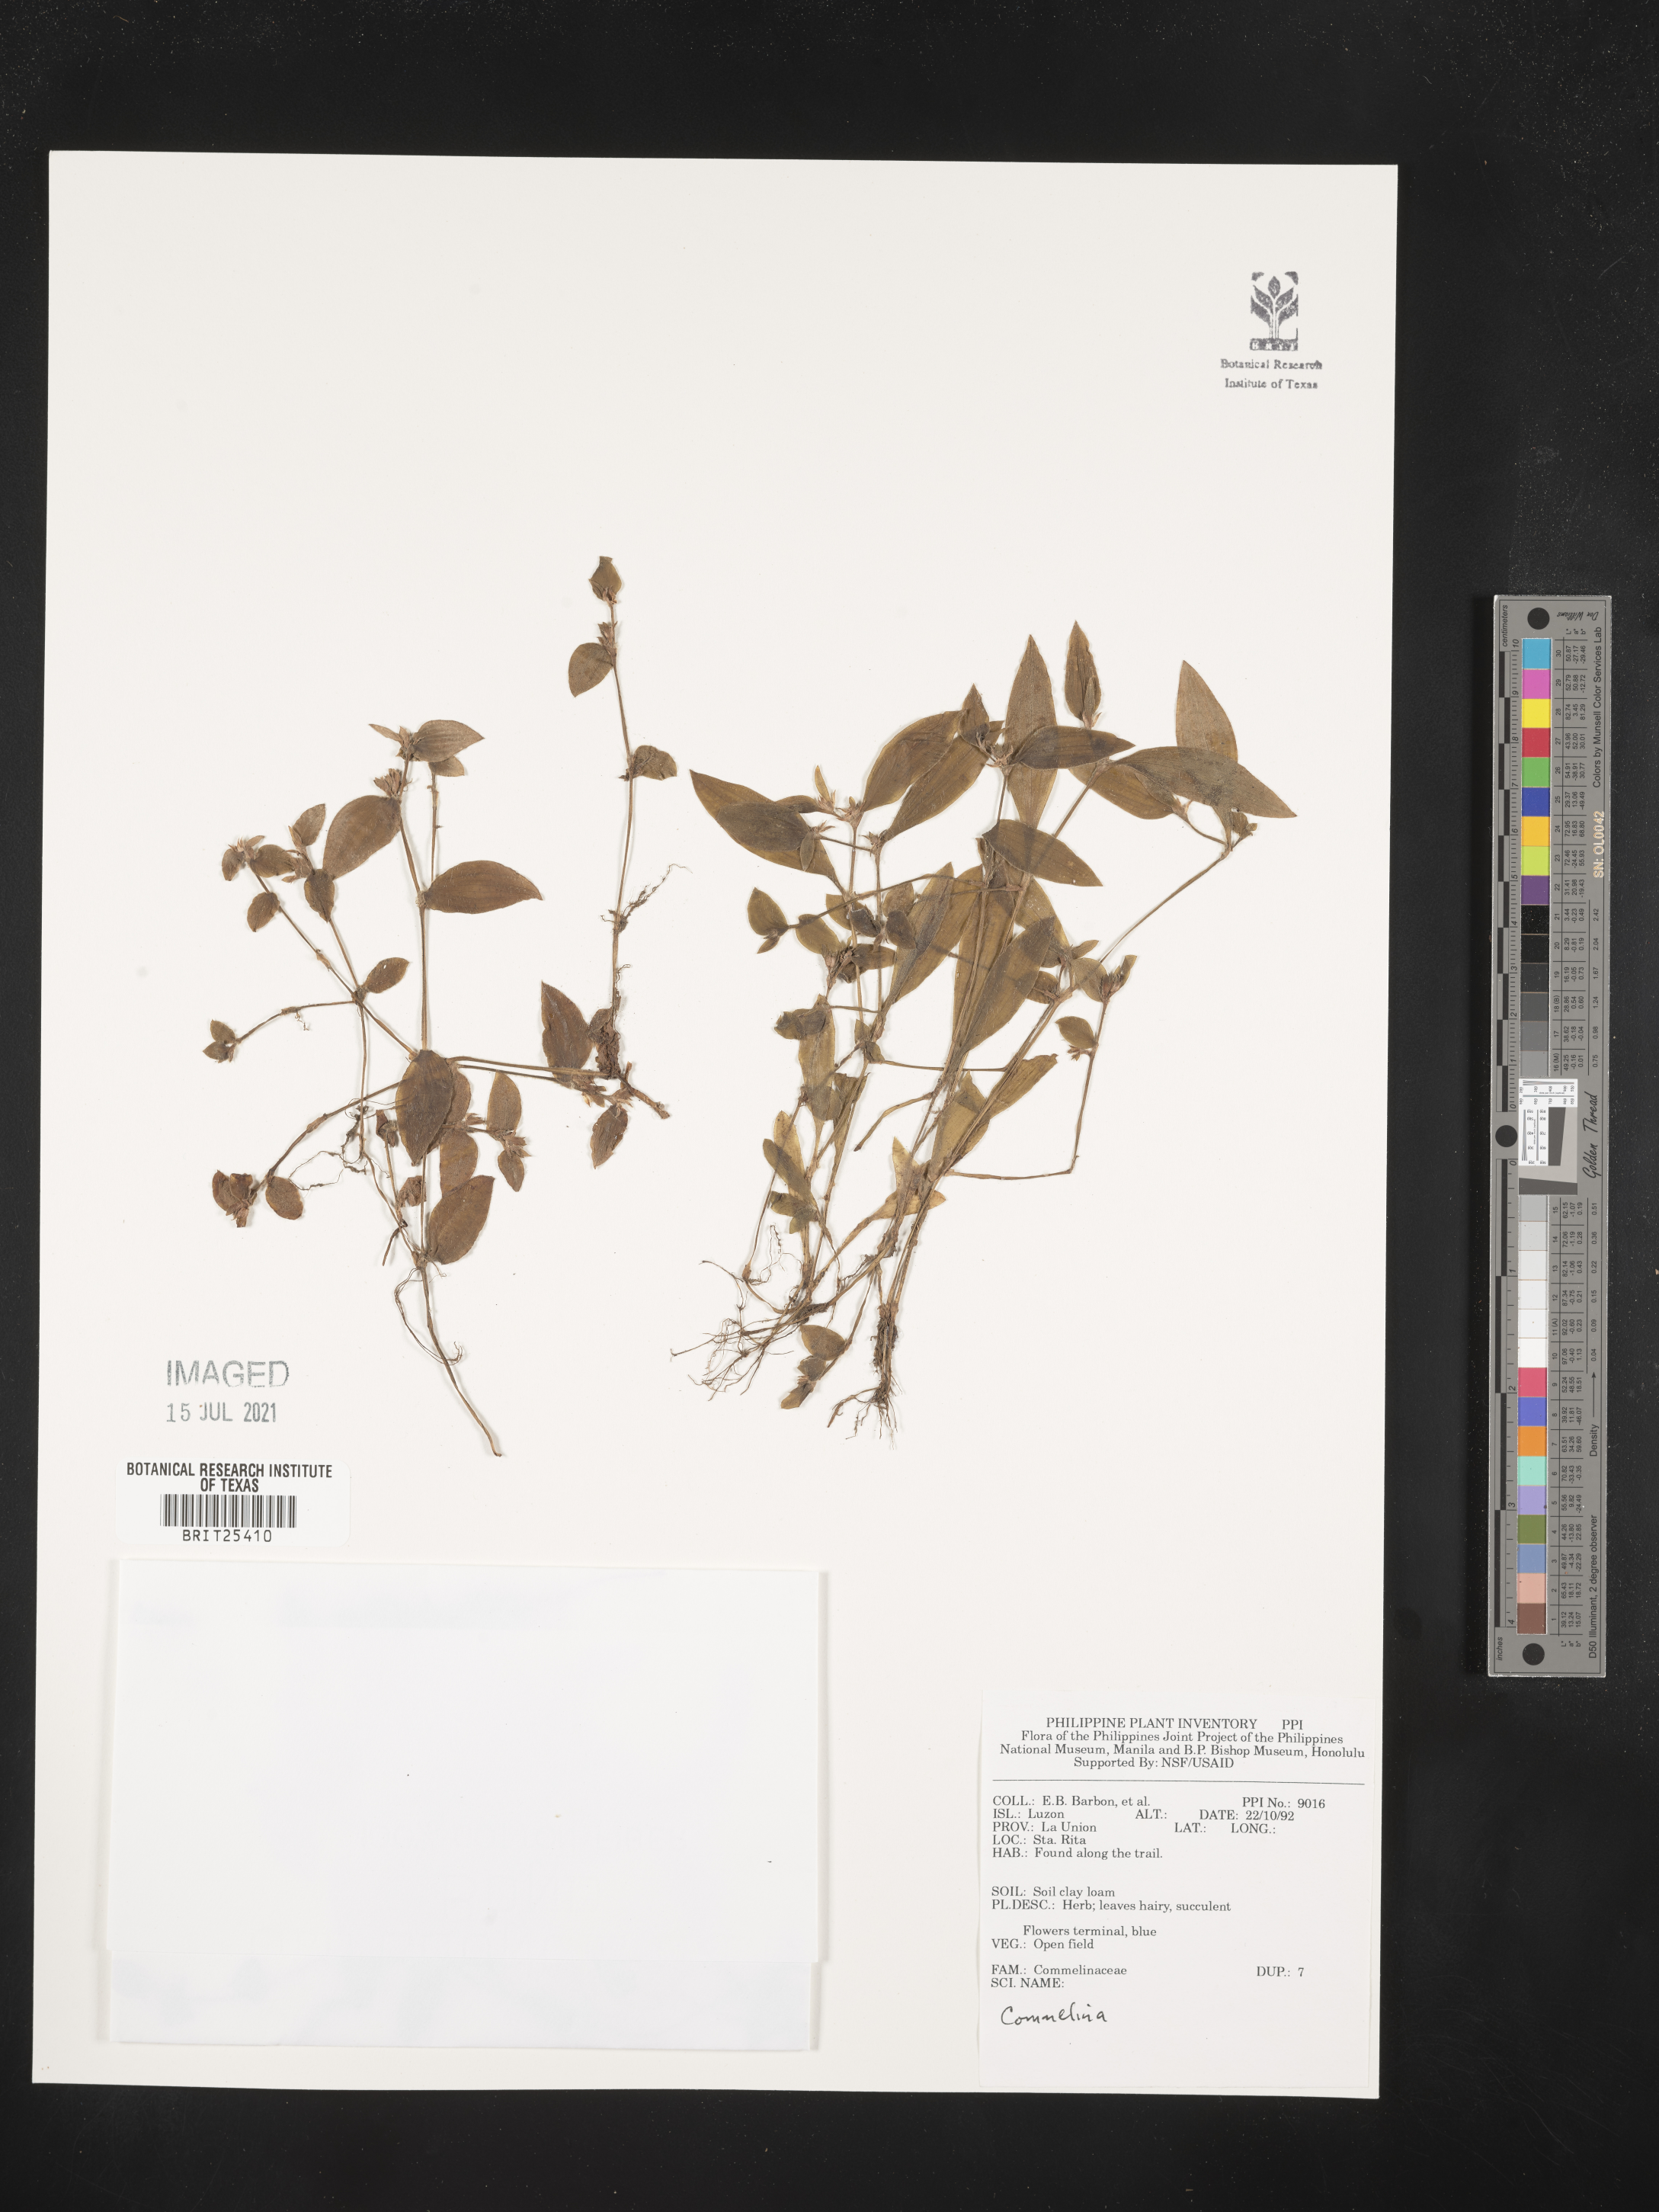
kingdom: Plantae
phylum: Tracheophyta
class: Liliopsida
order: Commelinales
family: Commelinaceae
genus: Commelina
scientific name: Commelina
